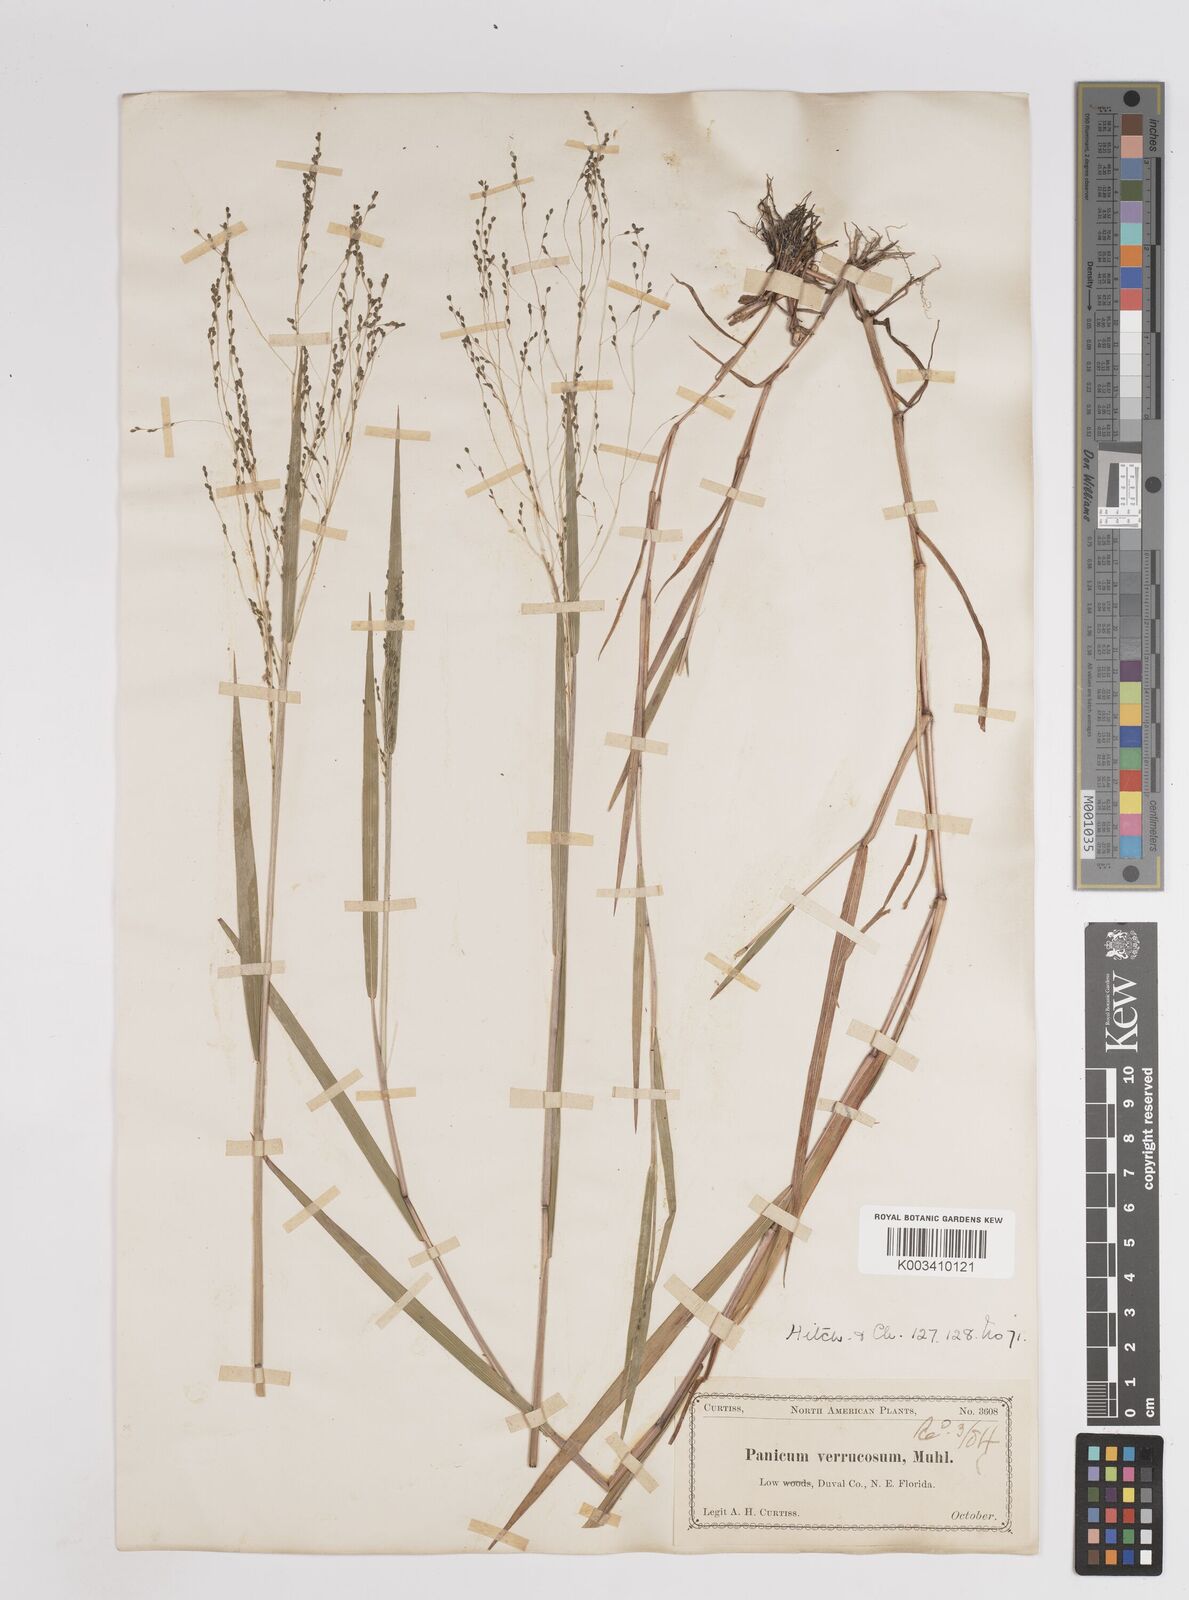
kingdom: Plantae
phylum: Tracheophyta
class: Liliopsida
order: Poales
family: Poaceae
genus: Kellochloa
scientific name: Kellochloa verrucosa
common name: Warty panic grass
